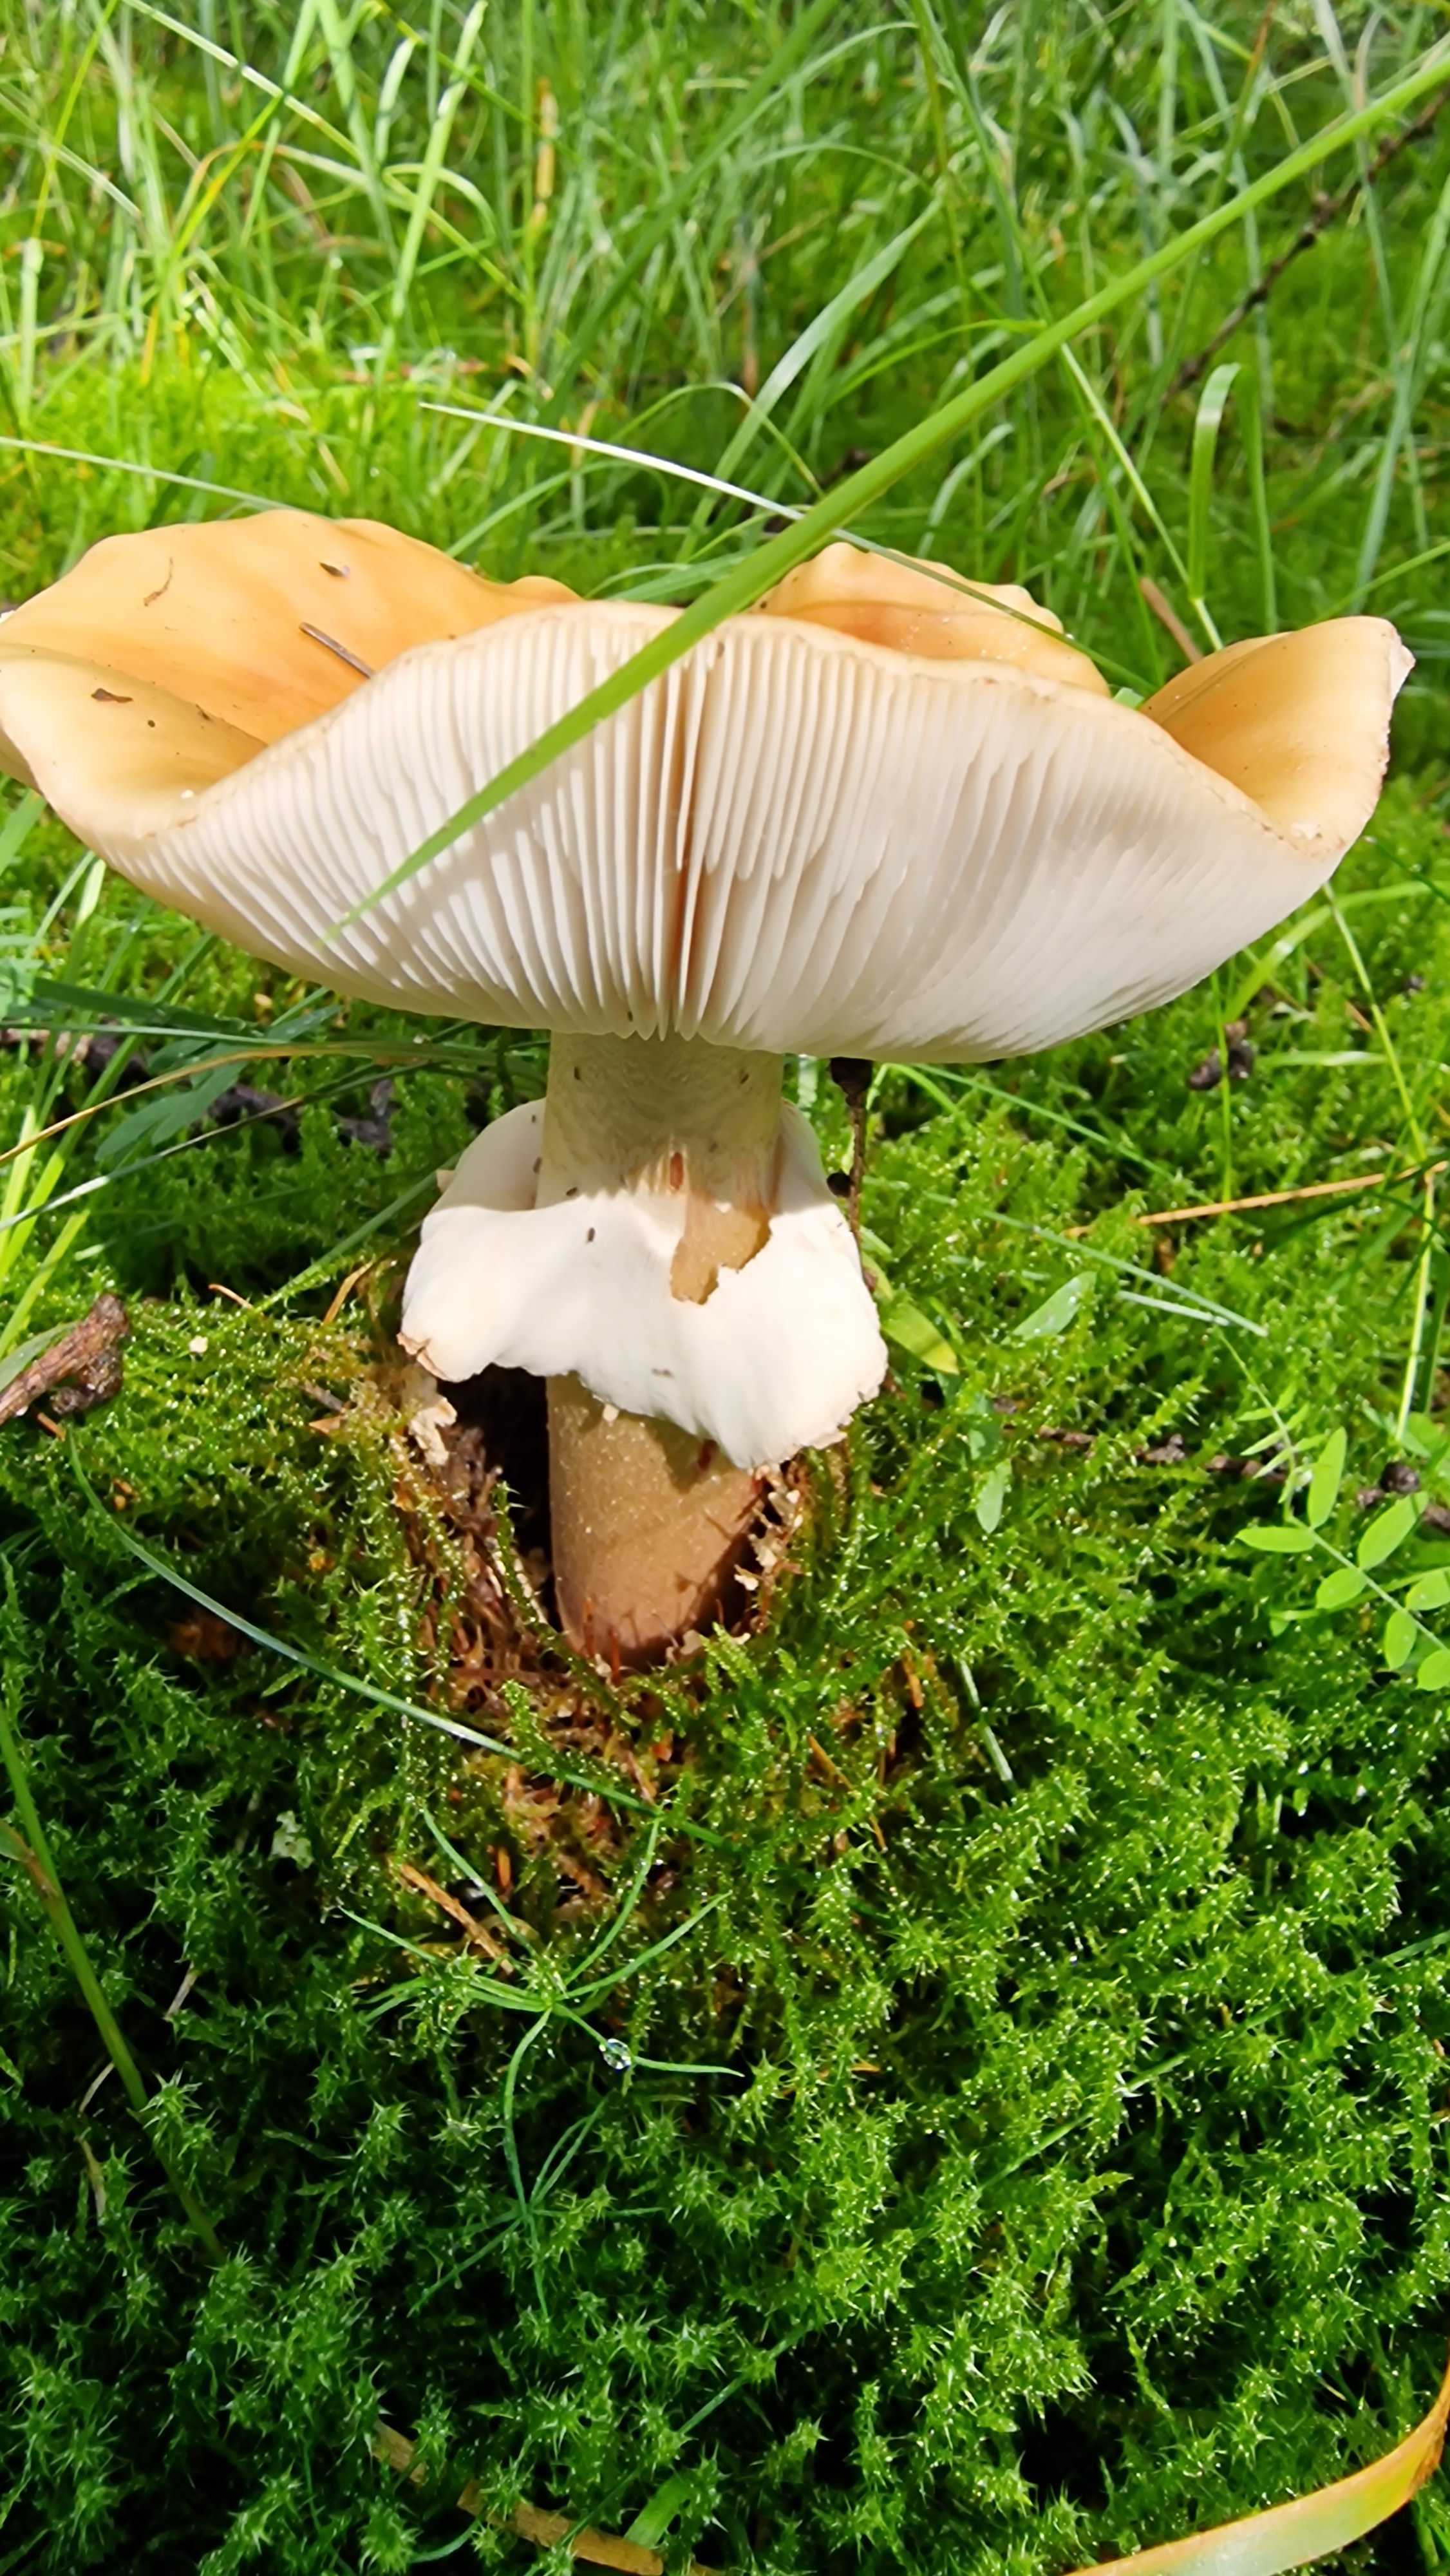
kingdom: Fungi
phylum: Basidiomycota
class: Agaricomycetes
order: Agaricales
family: Amanitaceae
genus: Amanita
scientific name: Amanita
